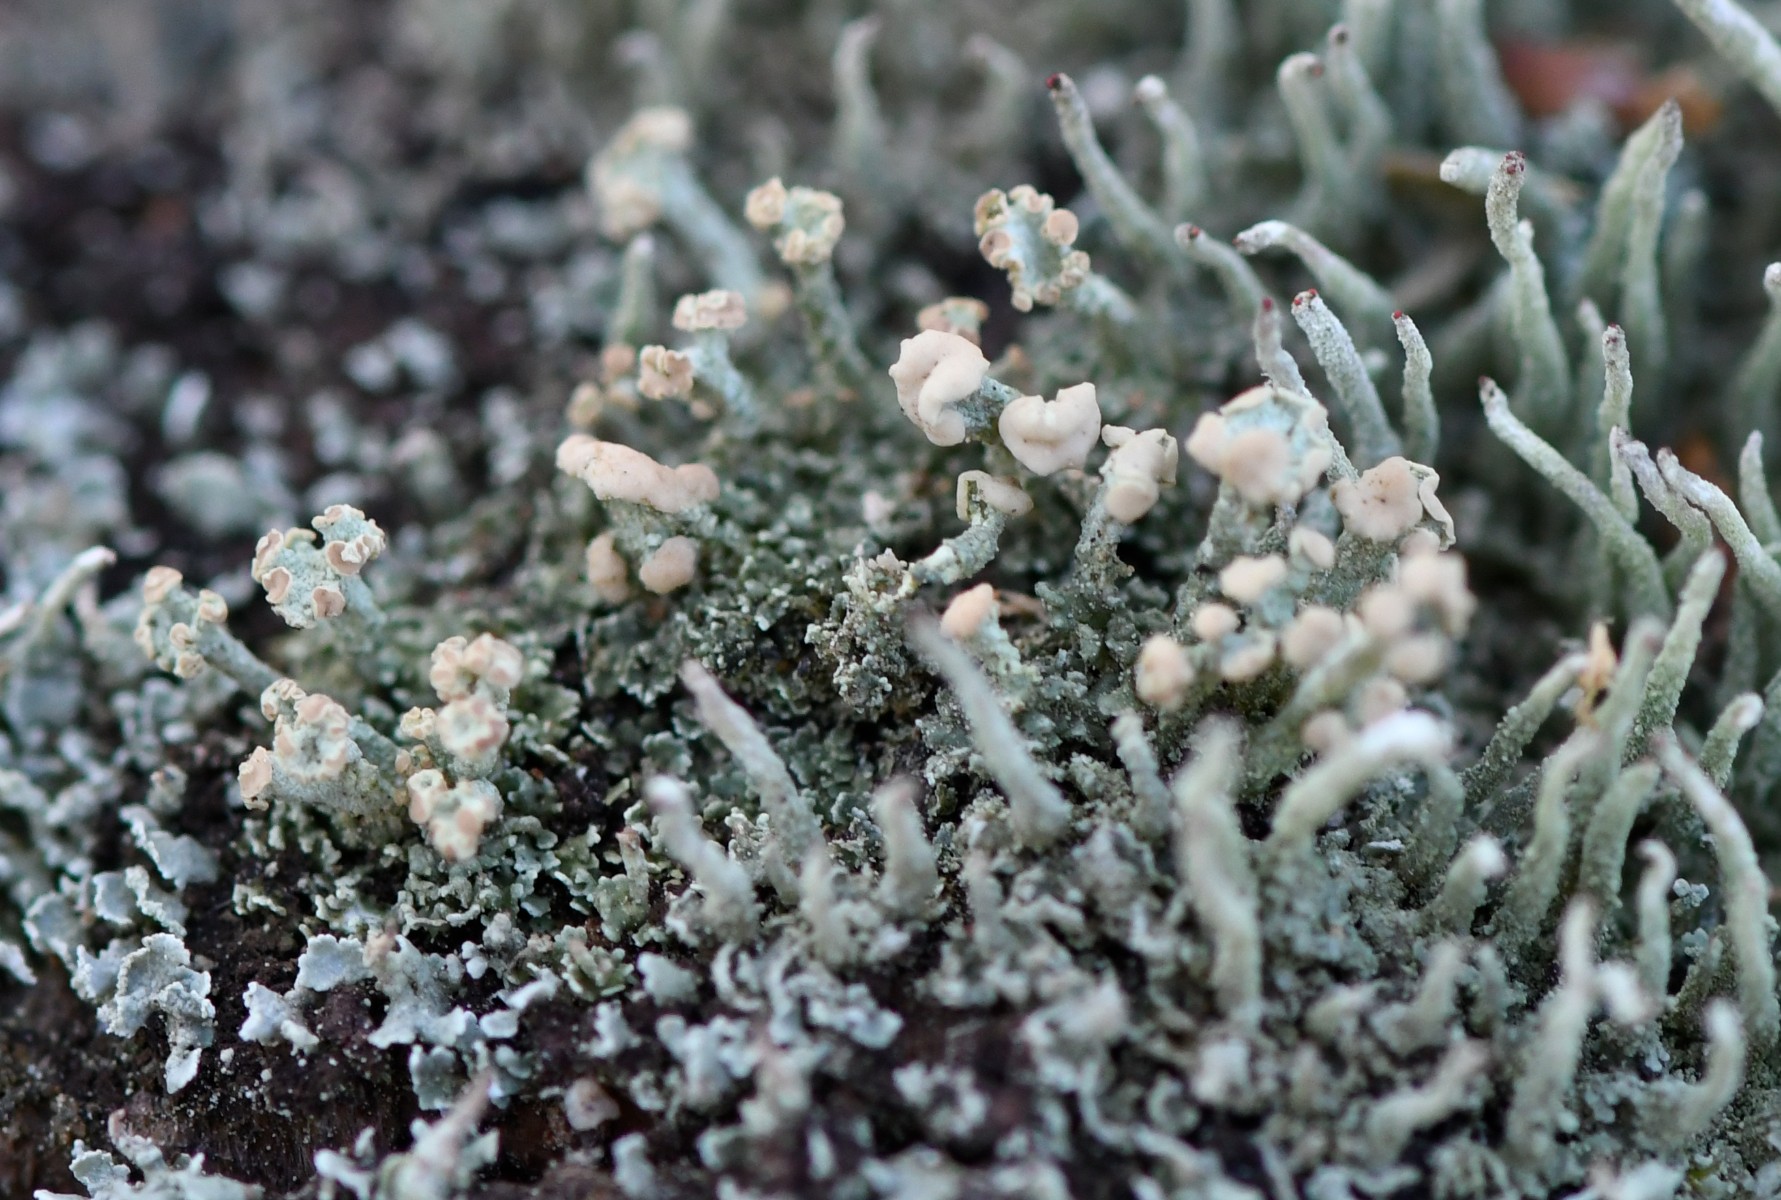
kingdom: Fungi
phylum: Ascomycota
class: Lecanoromycetes
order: Lecanorales
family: Cladoniaceae
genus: Cladonia
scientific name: Cladonia botrytes
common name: træstub-bægerlav
